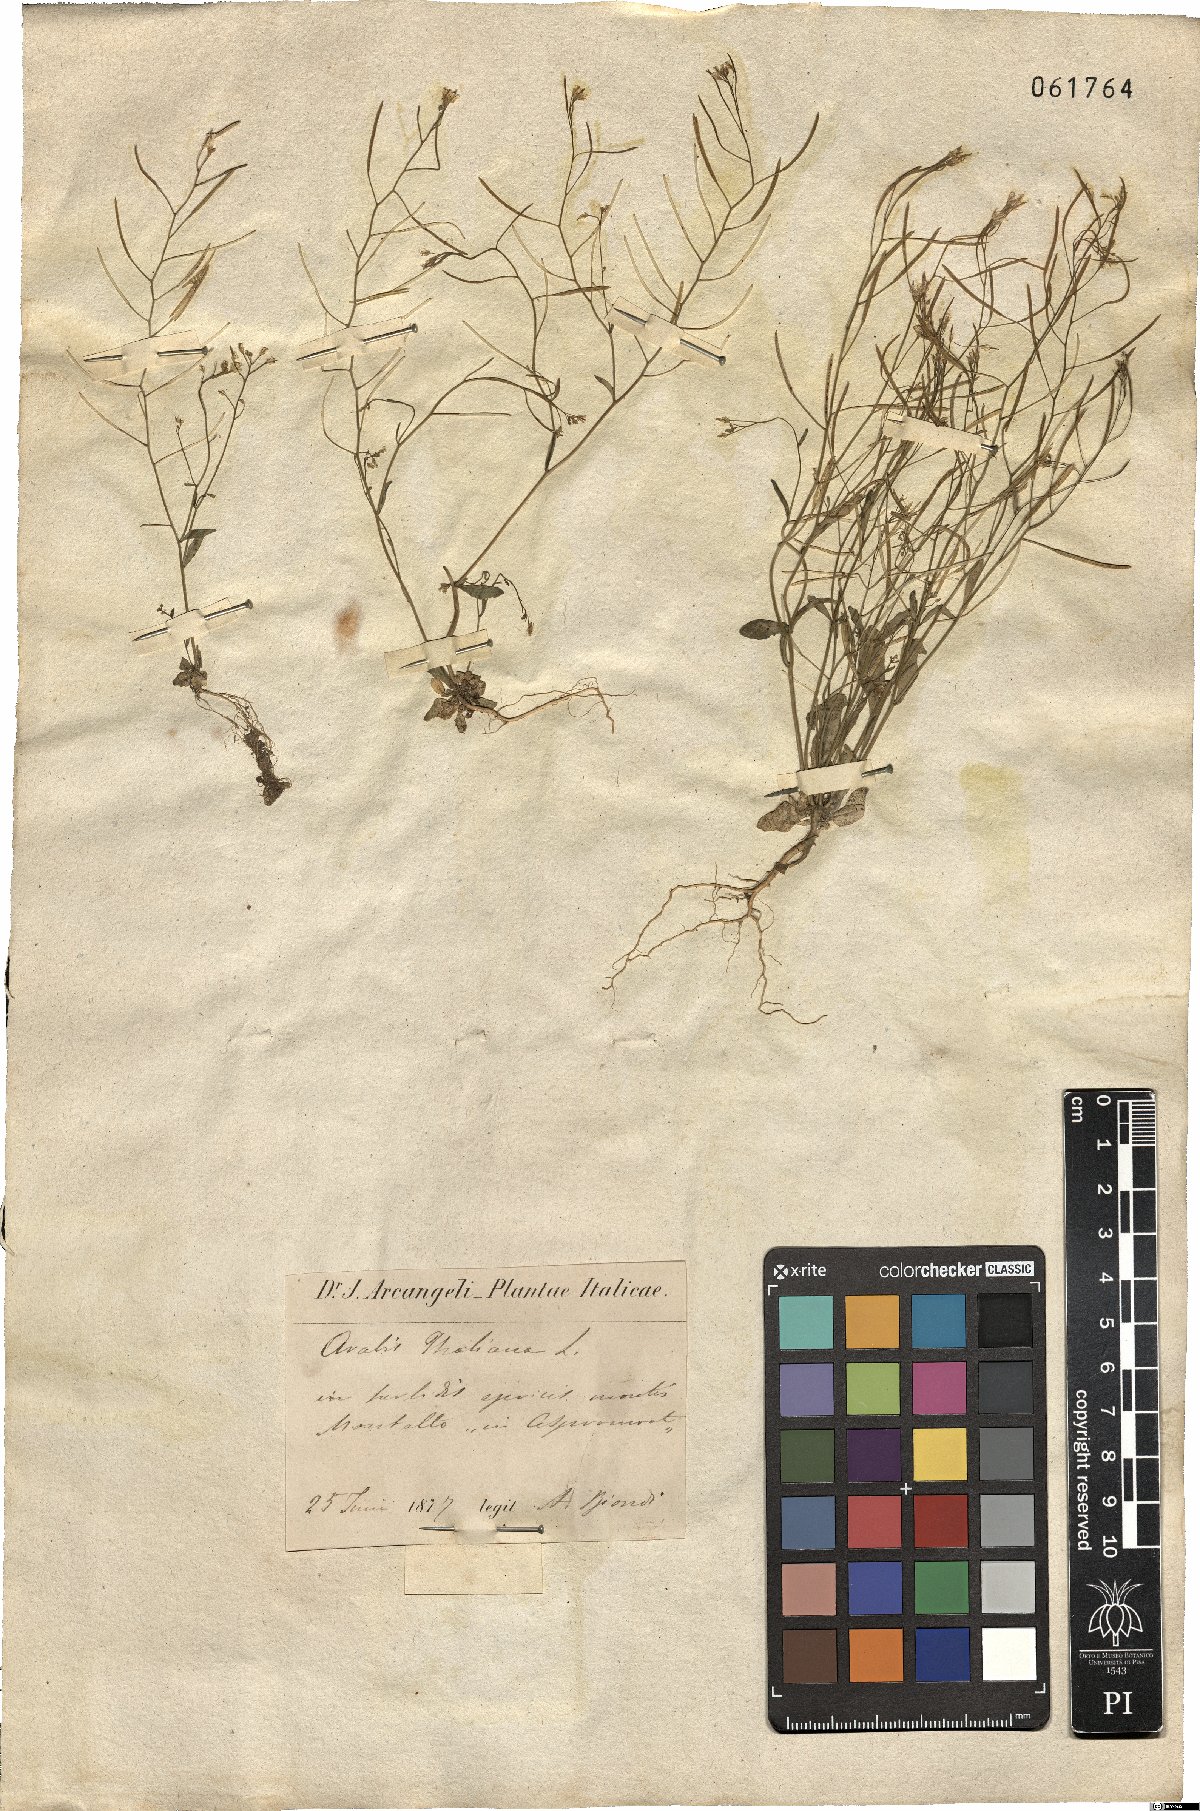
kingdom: Plantae
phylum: Tracheophyta
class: Magnoliopsida
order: Brassicales
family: Brassicaceae
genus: Arabidopsis
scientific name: Arabidopsis thaliana
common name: Thale cress
